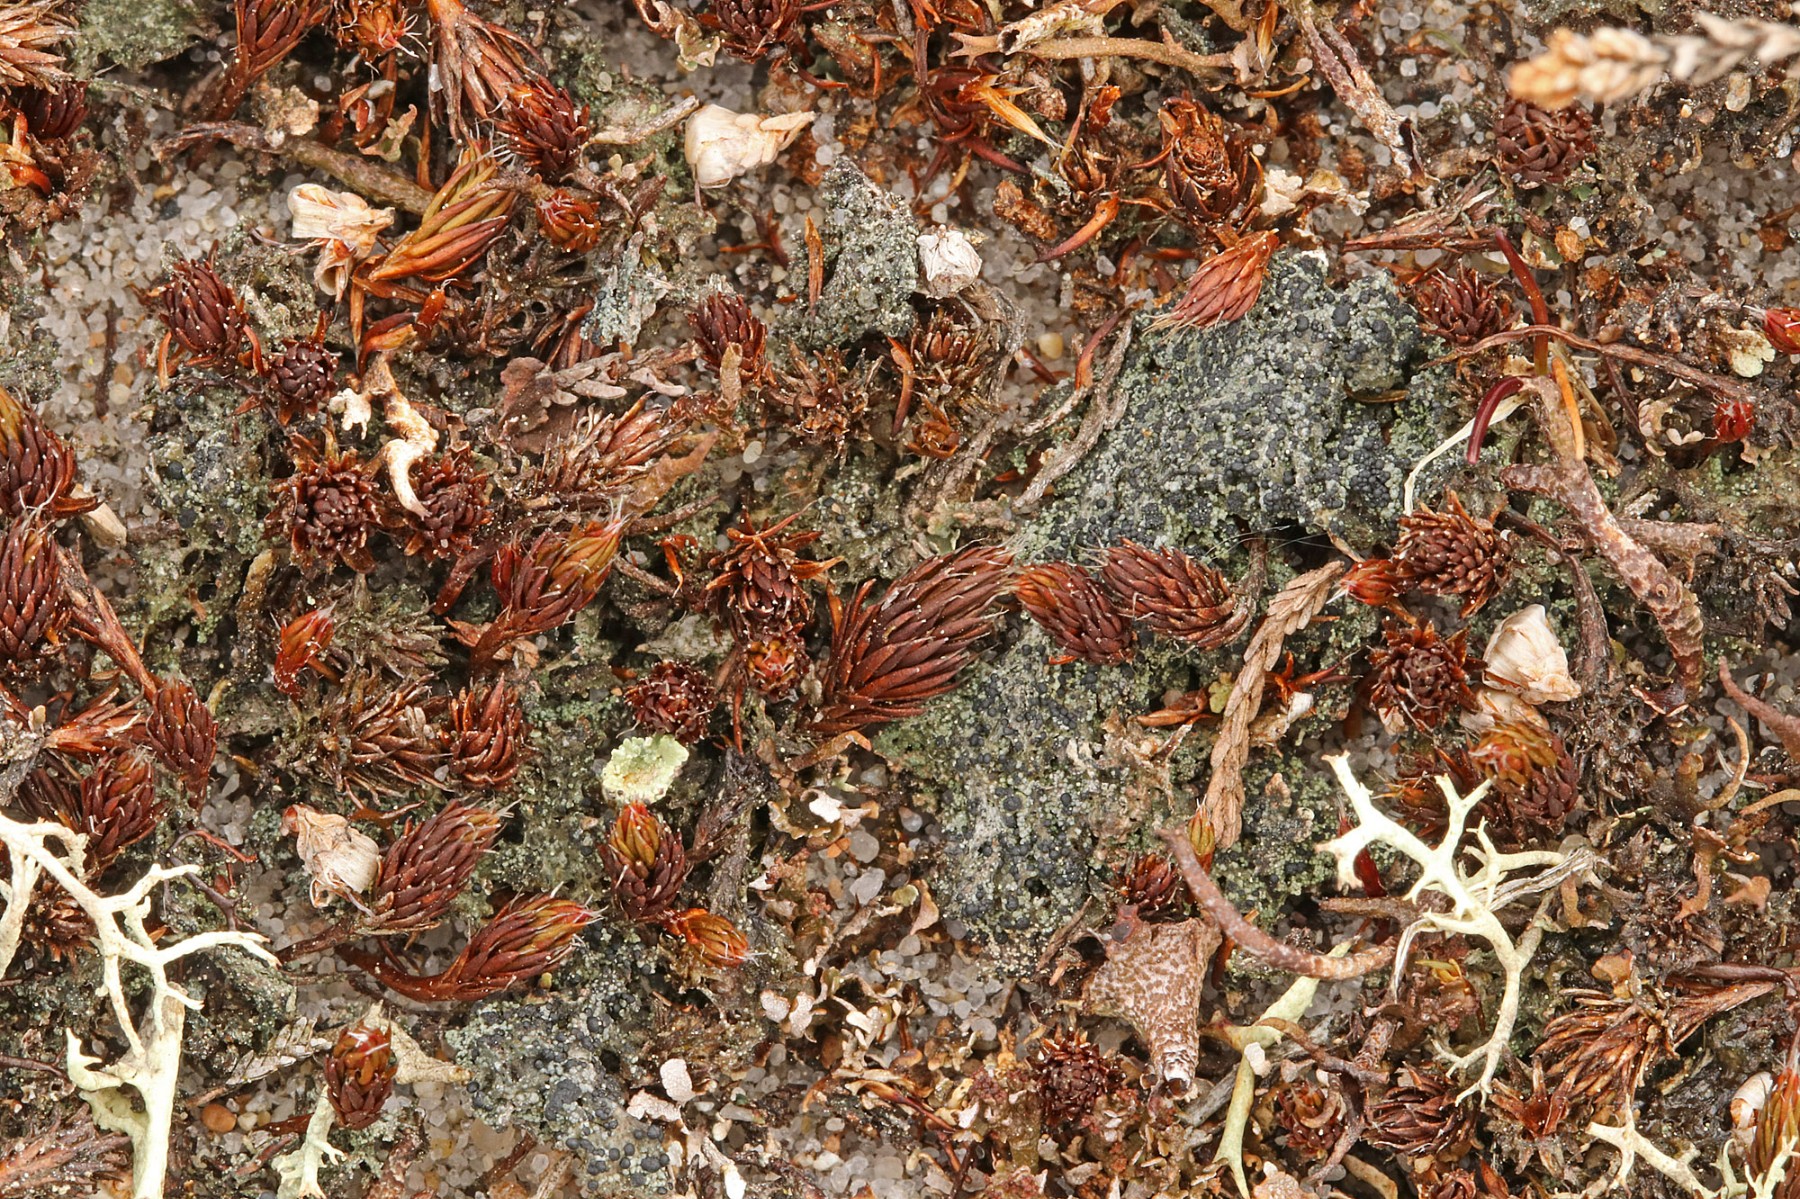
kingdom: Fungi
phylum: Ascomycota
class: Lecanoromycetes
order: Lecanorales
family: Byssolomataceae
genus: Micarea
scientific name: Micarea lignaria
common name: tørve-knaplav
